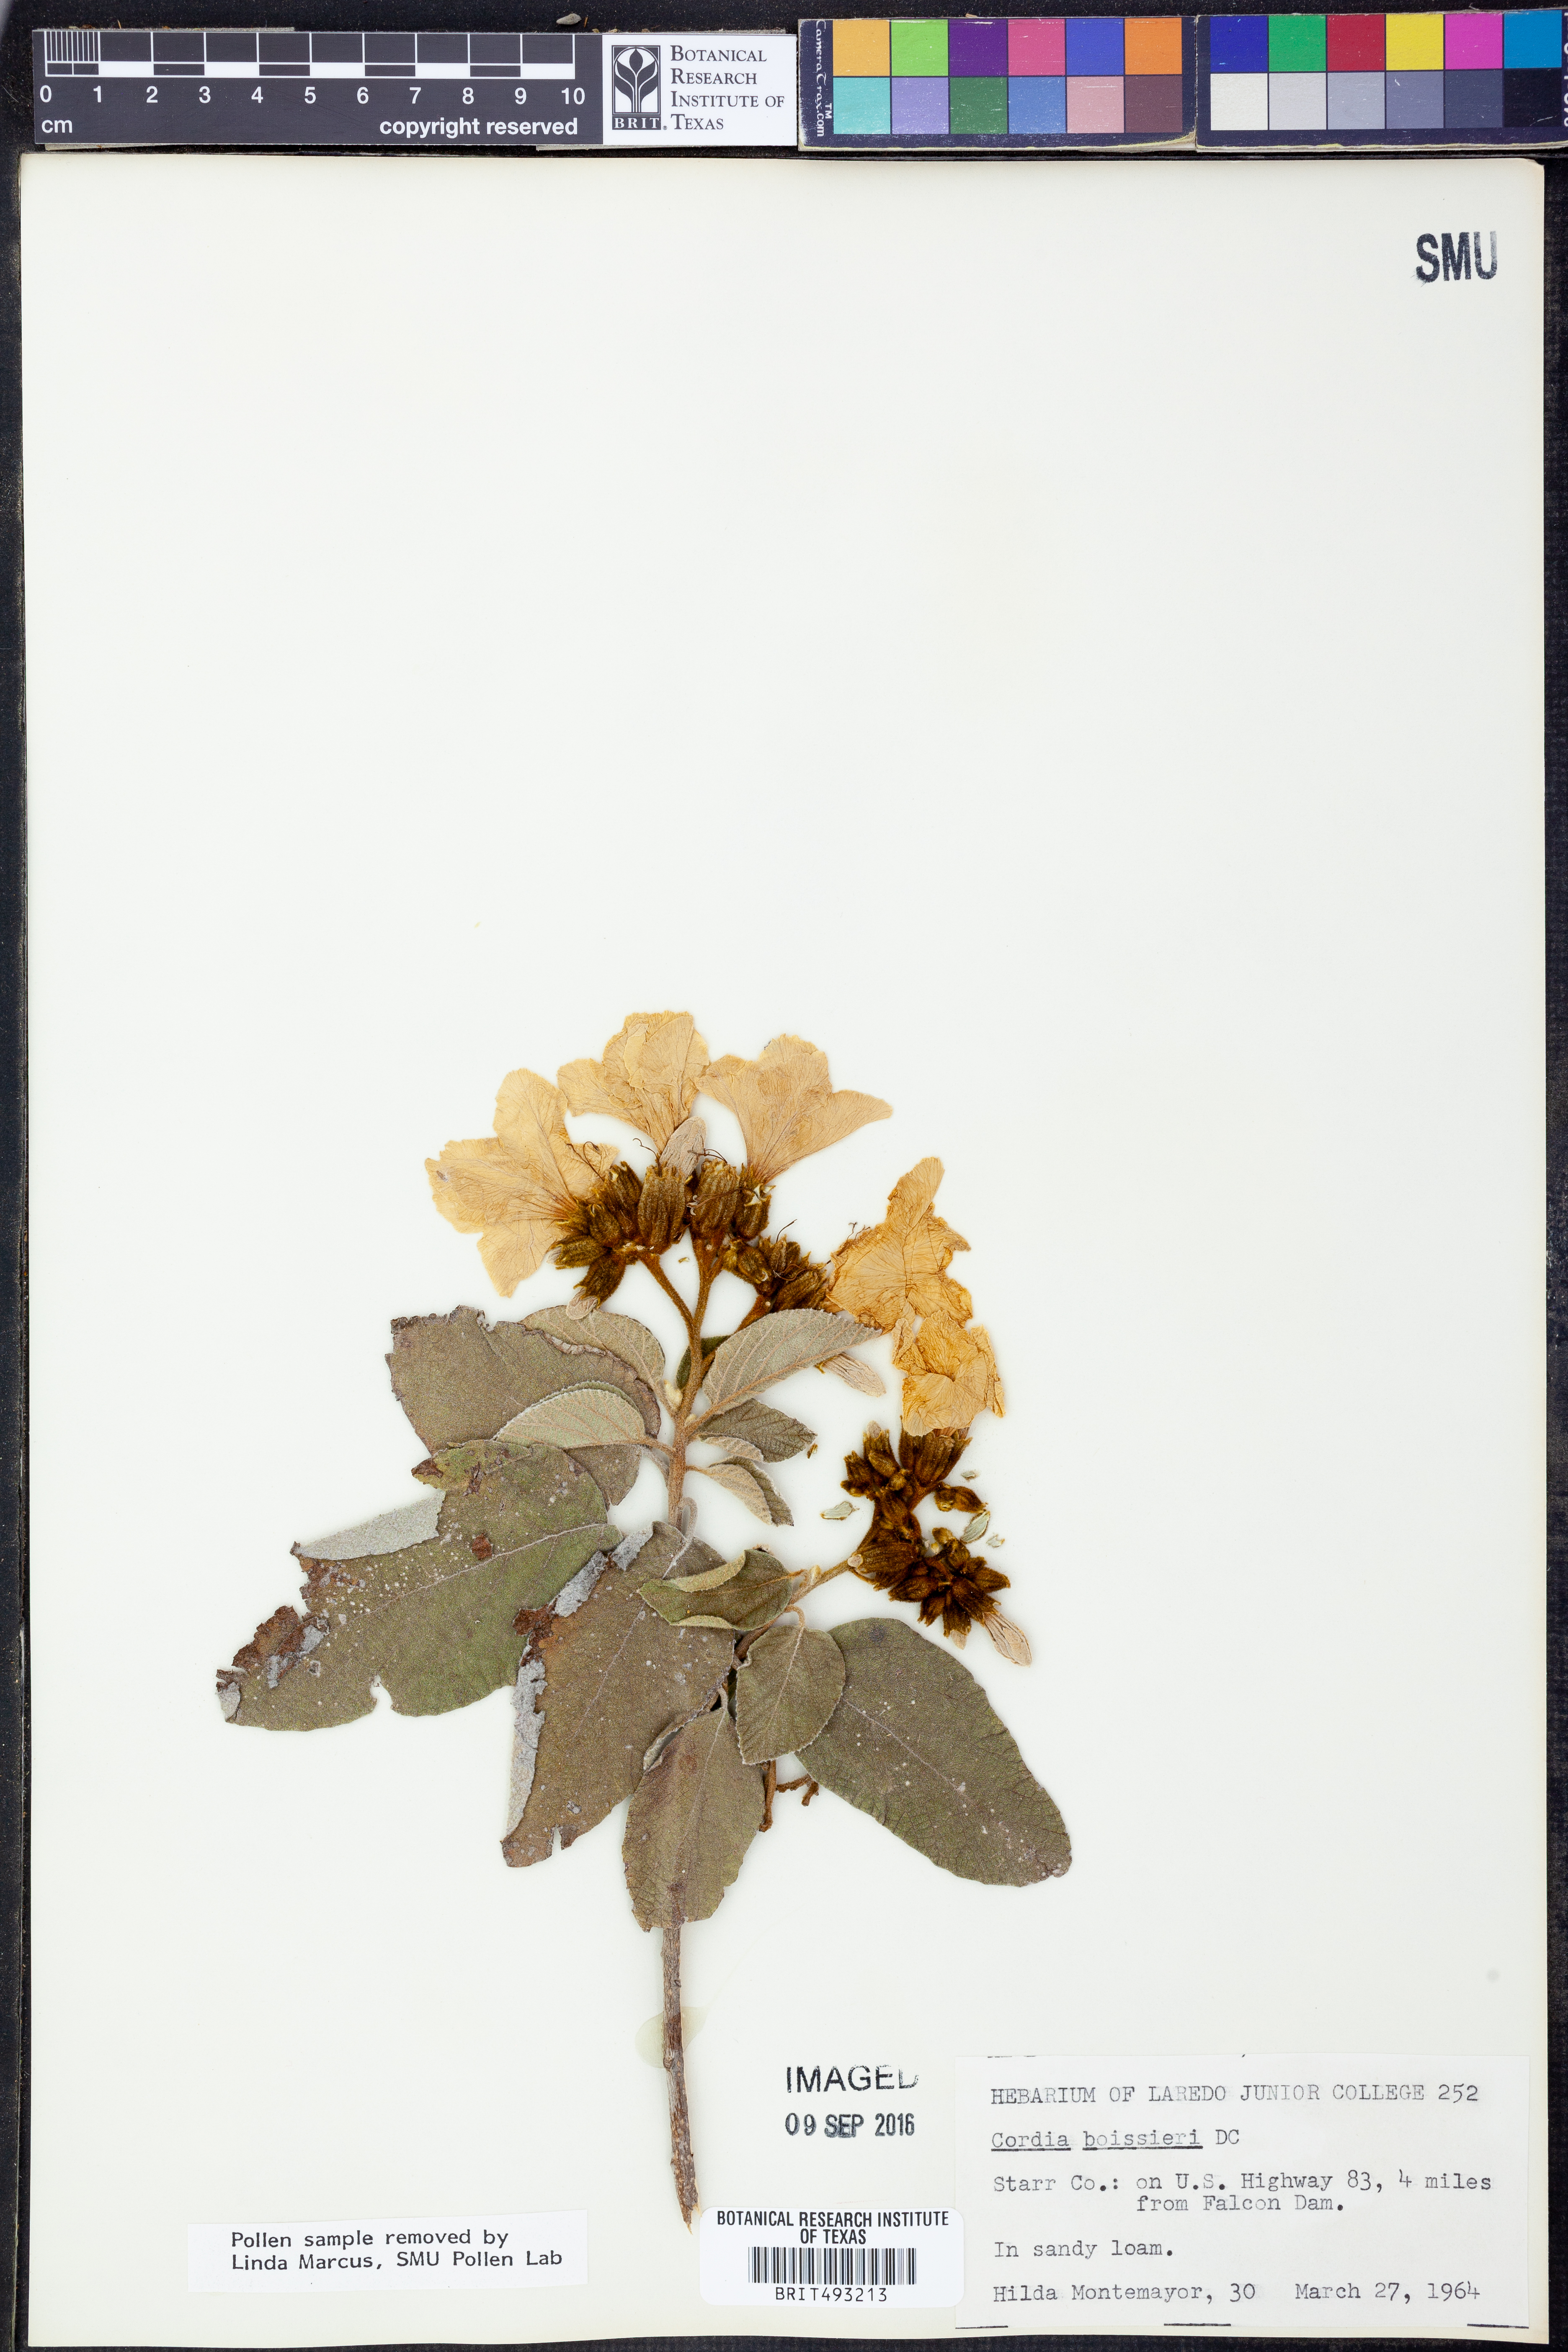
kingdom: Plantae
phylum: Tracheophyta
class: Magnoliopsida
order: Boraginales
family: Cordiaceae
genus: Cordia
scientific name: Cordia boissieri
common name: Mexican-olive
